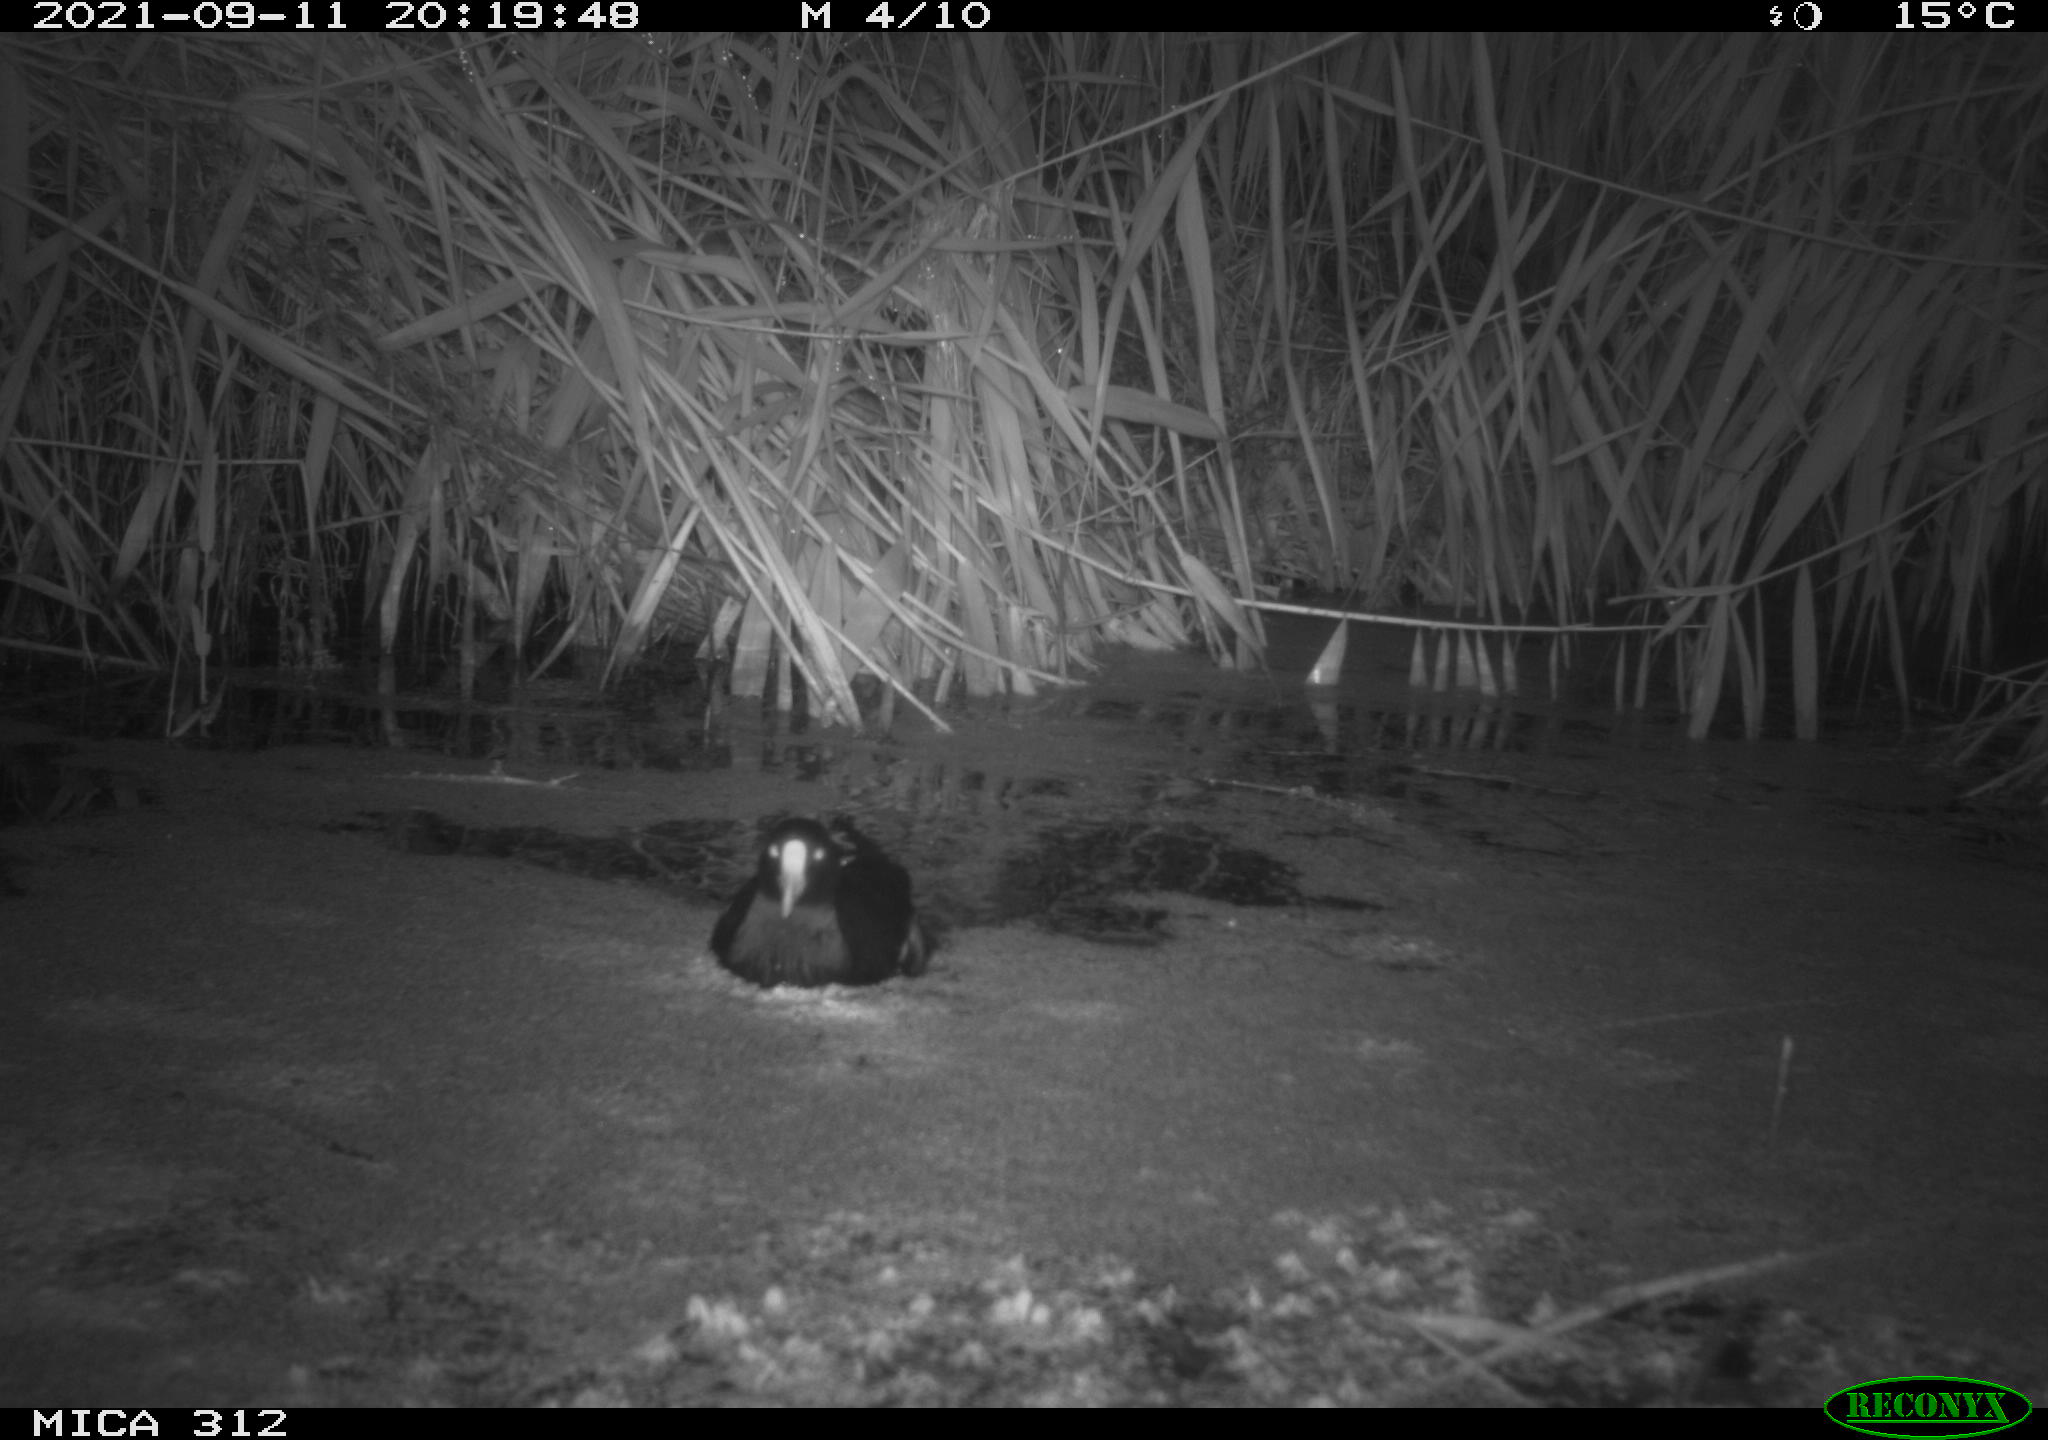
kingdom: Animalia
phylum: Chordata
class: Aves
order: Gruiformes
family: Rallidae
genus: Gallinula
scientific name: Gallinula chloropus
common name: Common moorhen
